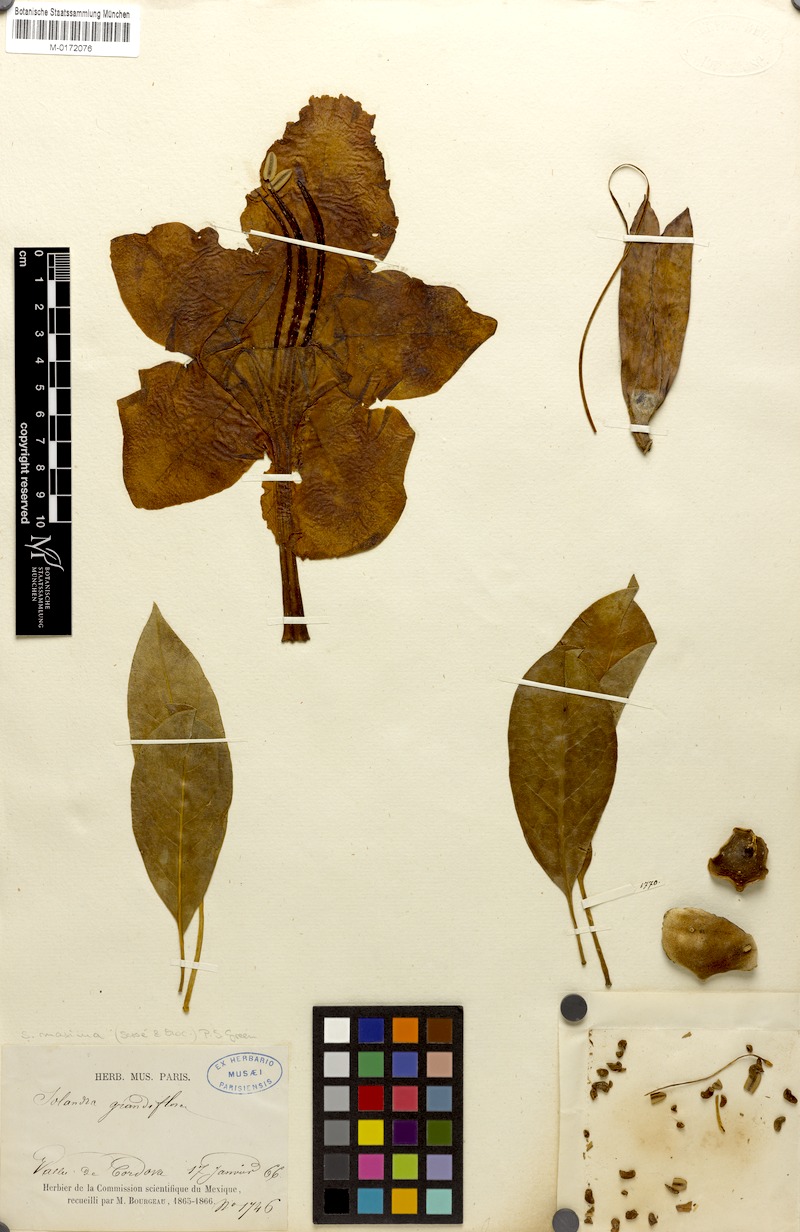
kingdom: Plantae
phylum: Tracheophyta
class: Magnoliopsida
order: Solanales
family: Solanaceae
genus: Solandra
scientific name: Solandra grandiflora
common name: Showy chalicevine
